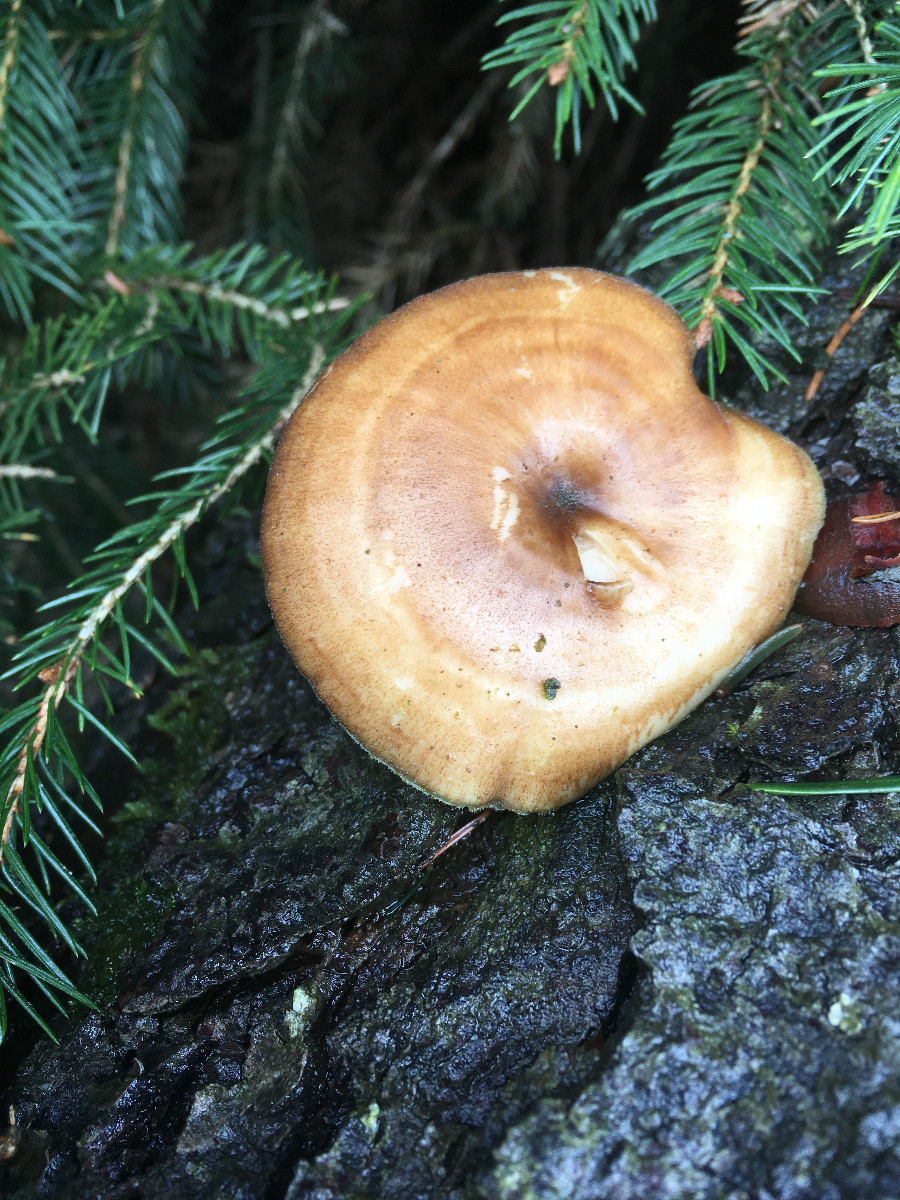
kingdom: Fungi
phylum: Basidiomycota
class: Agaricomycetes
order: Polyporales
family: Polyporaceae
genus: Lentinus
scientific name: Lentinus brumalis
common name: vinter-stilkporesvamp
